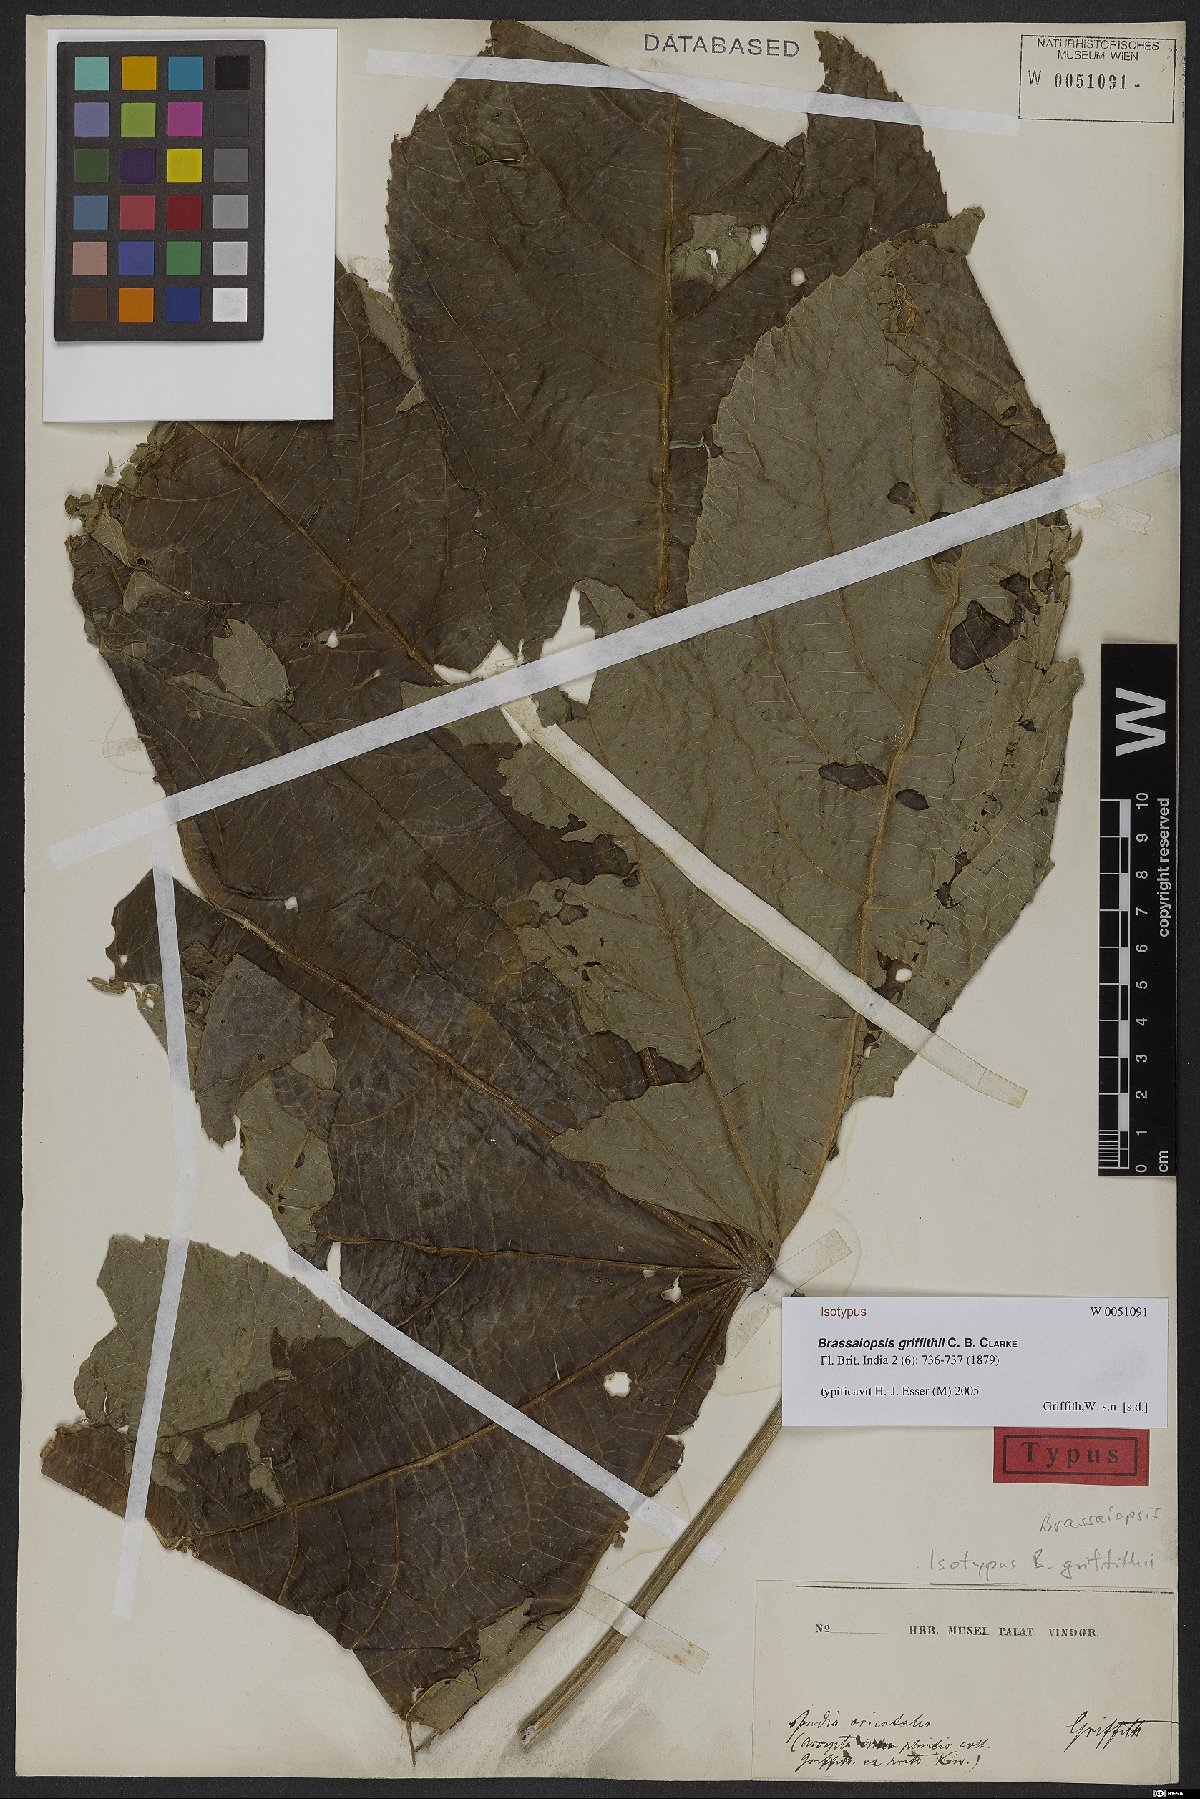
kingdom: Plantae
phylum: Tracheophyta
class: Magnoliopsida
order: Apiales
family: Araliaceae
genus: Brassaiopsis
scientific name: Brassaiopsis griffithii
